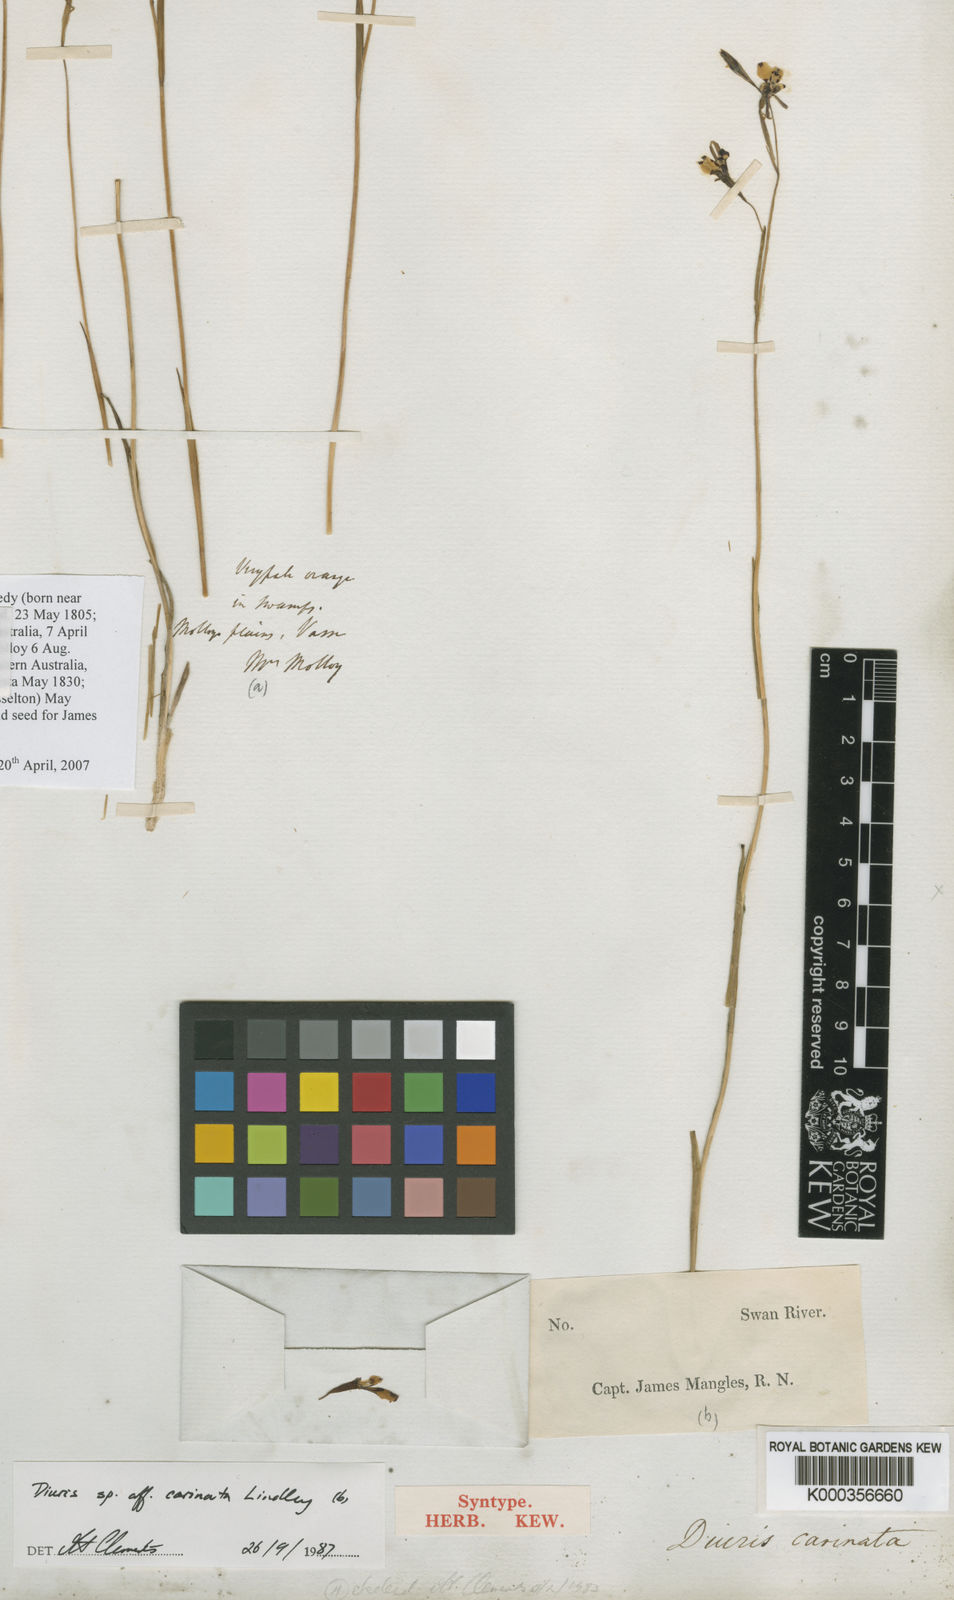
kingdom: Plantae
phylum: Tracheophyta
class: Liliopsida
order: Asparagales
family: Orchidaceae
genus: Diuris
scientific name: Diuris carinata
